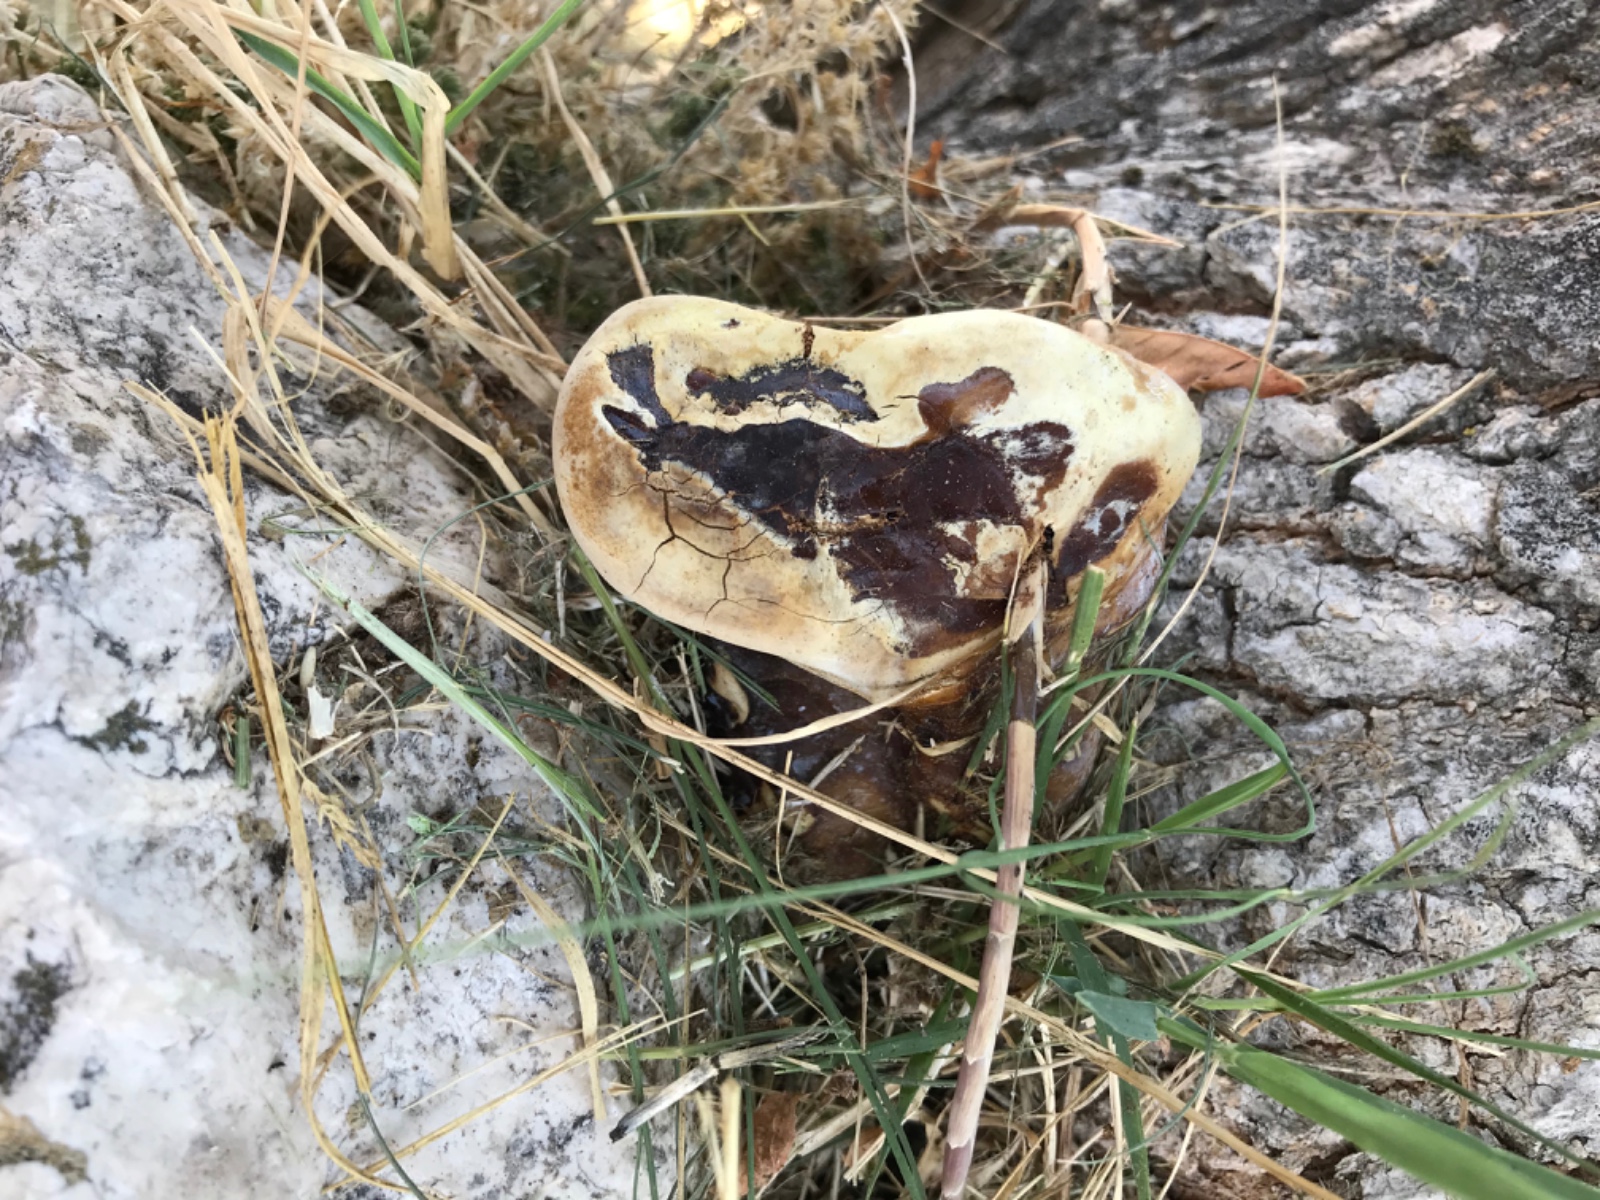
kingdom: Fungi
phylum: Basidiomycota
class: Agaricomycetes
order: Polyporales
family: Polyporaceae
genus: Ganoderma
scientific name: Ganoderma resinaceum
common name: gyldenbrun lakporesvamp
